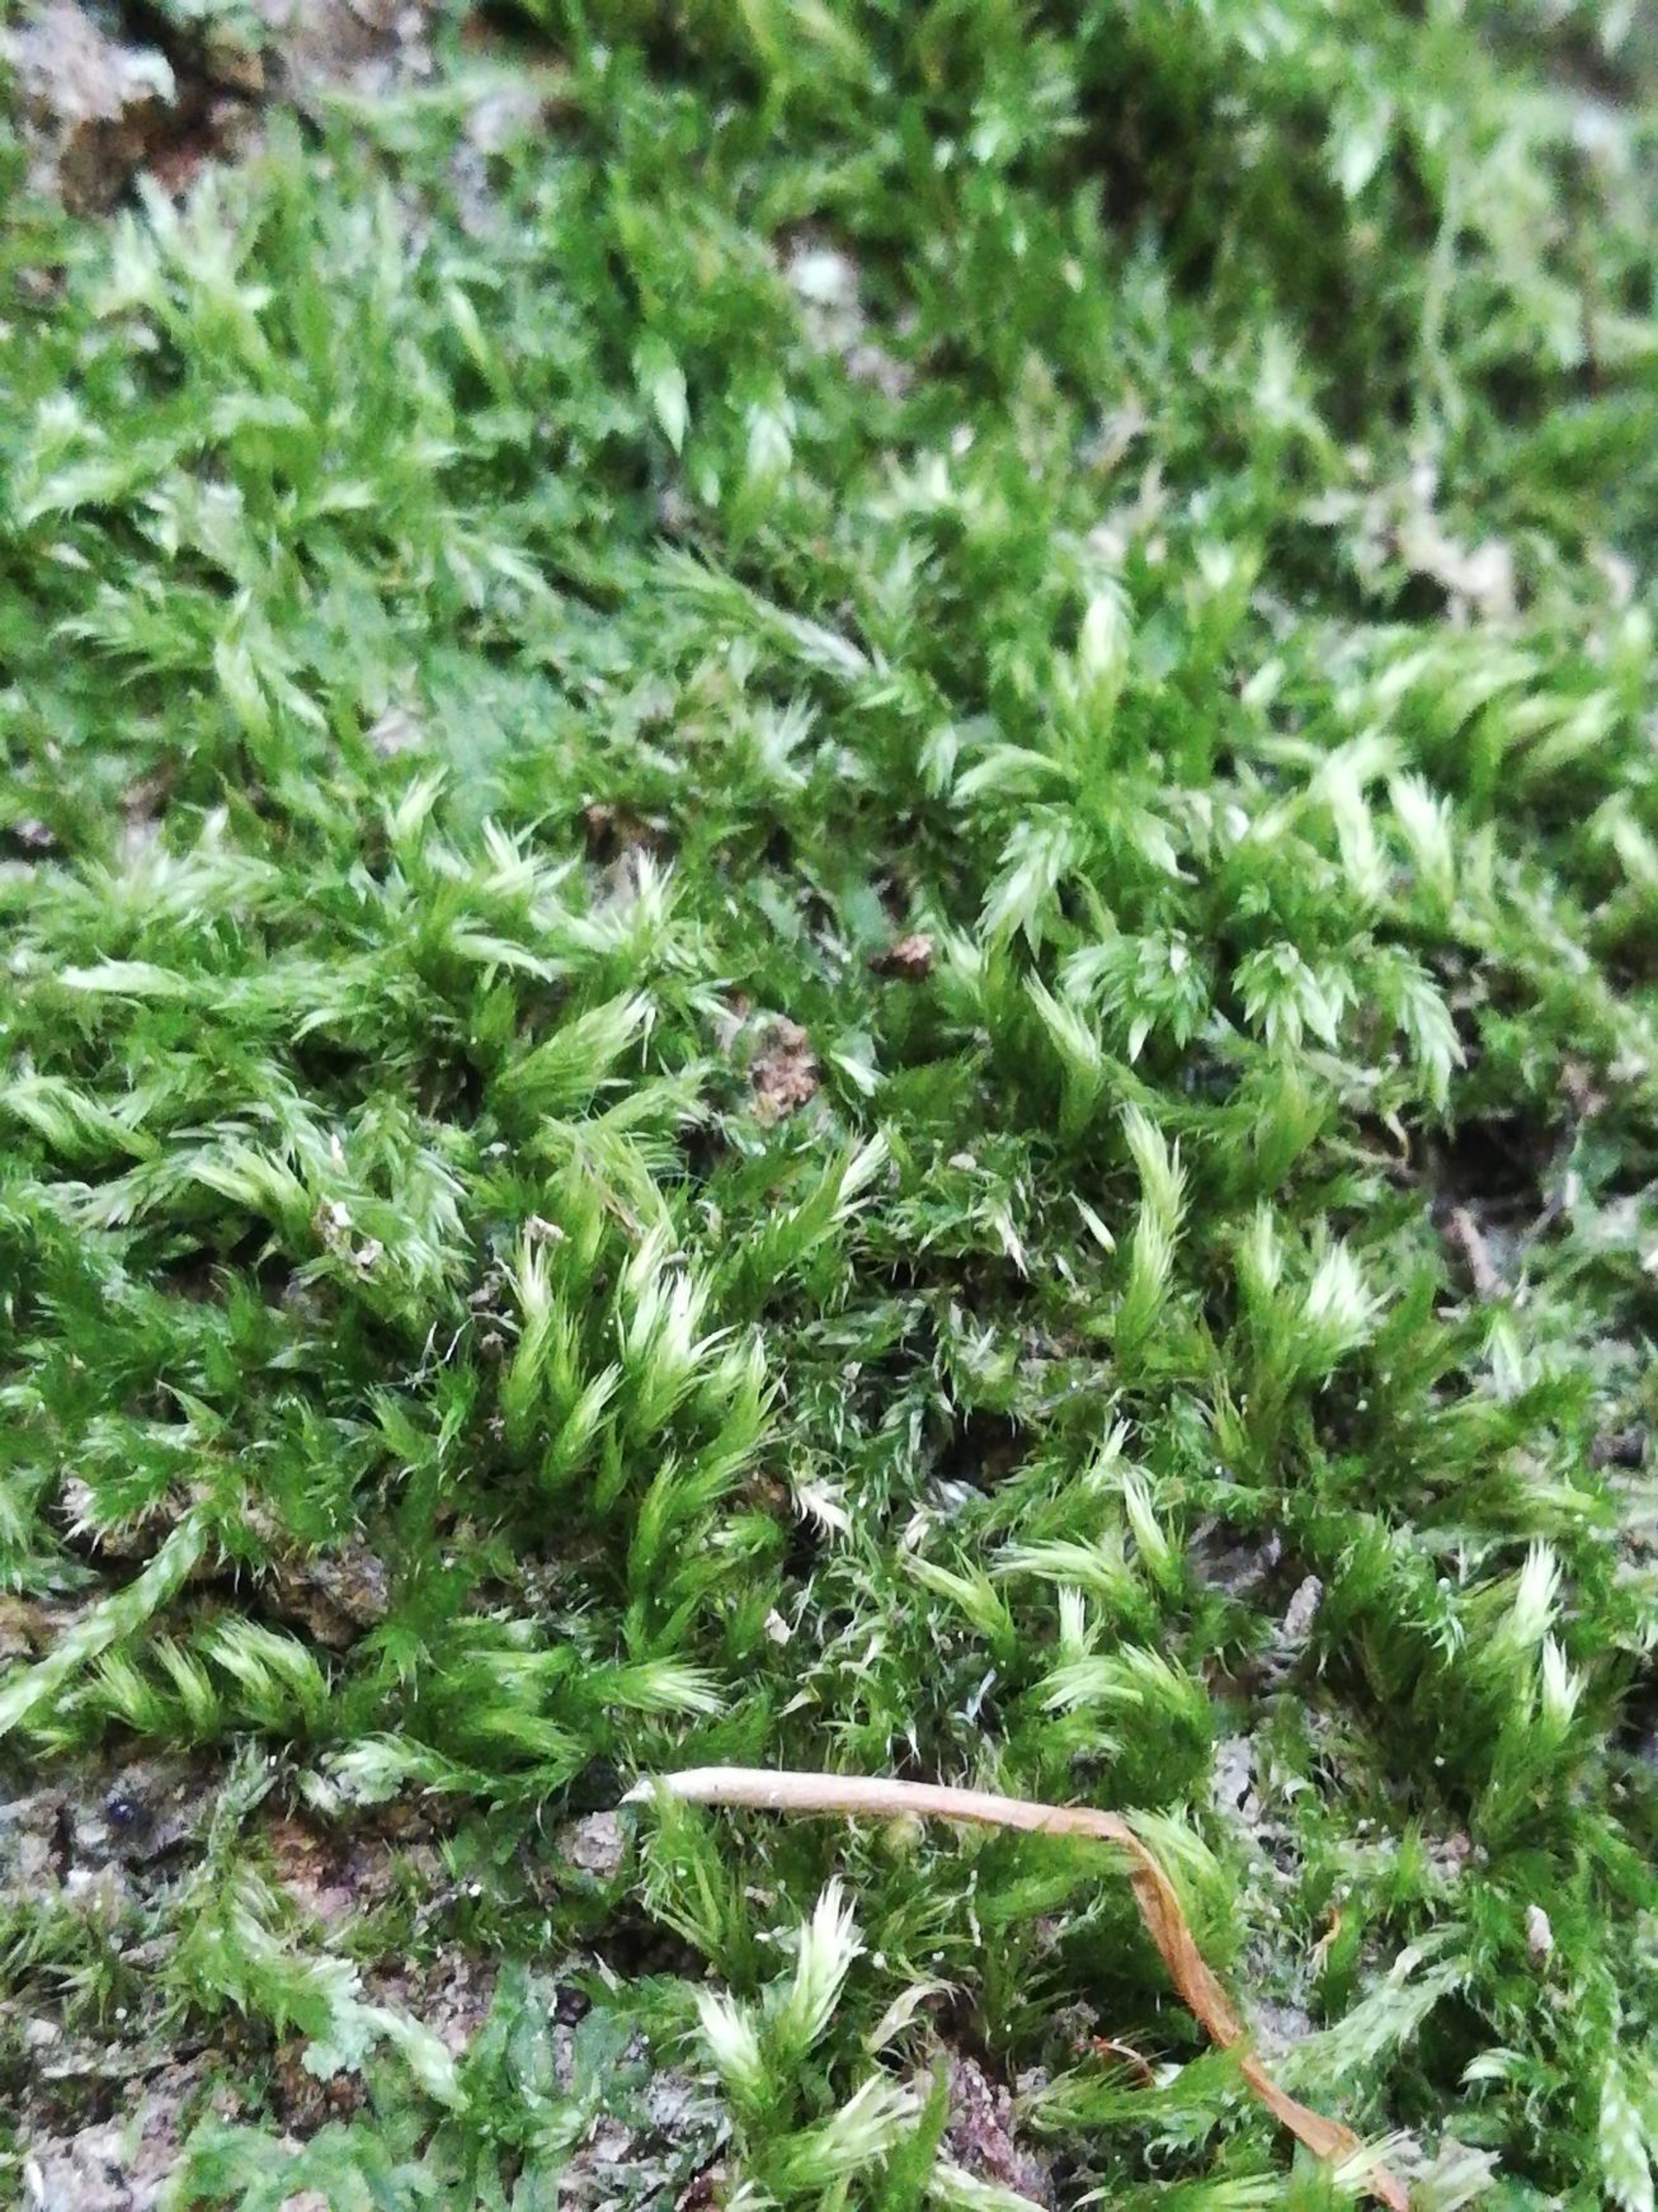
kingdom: Plantae
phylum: Bryophyta
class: Bryopsida
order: Hypnales
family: Brachytheciaceae
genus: Homalothecium
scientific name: Homalothecium sericeum
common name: Krybende silkemos
